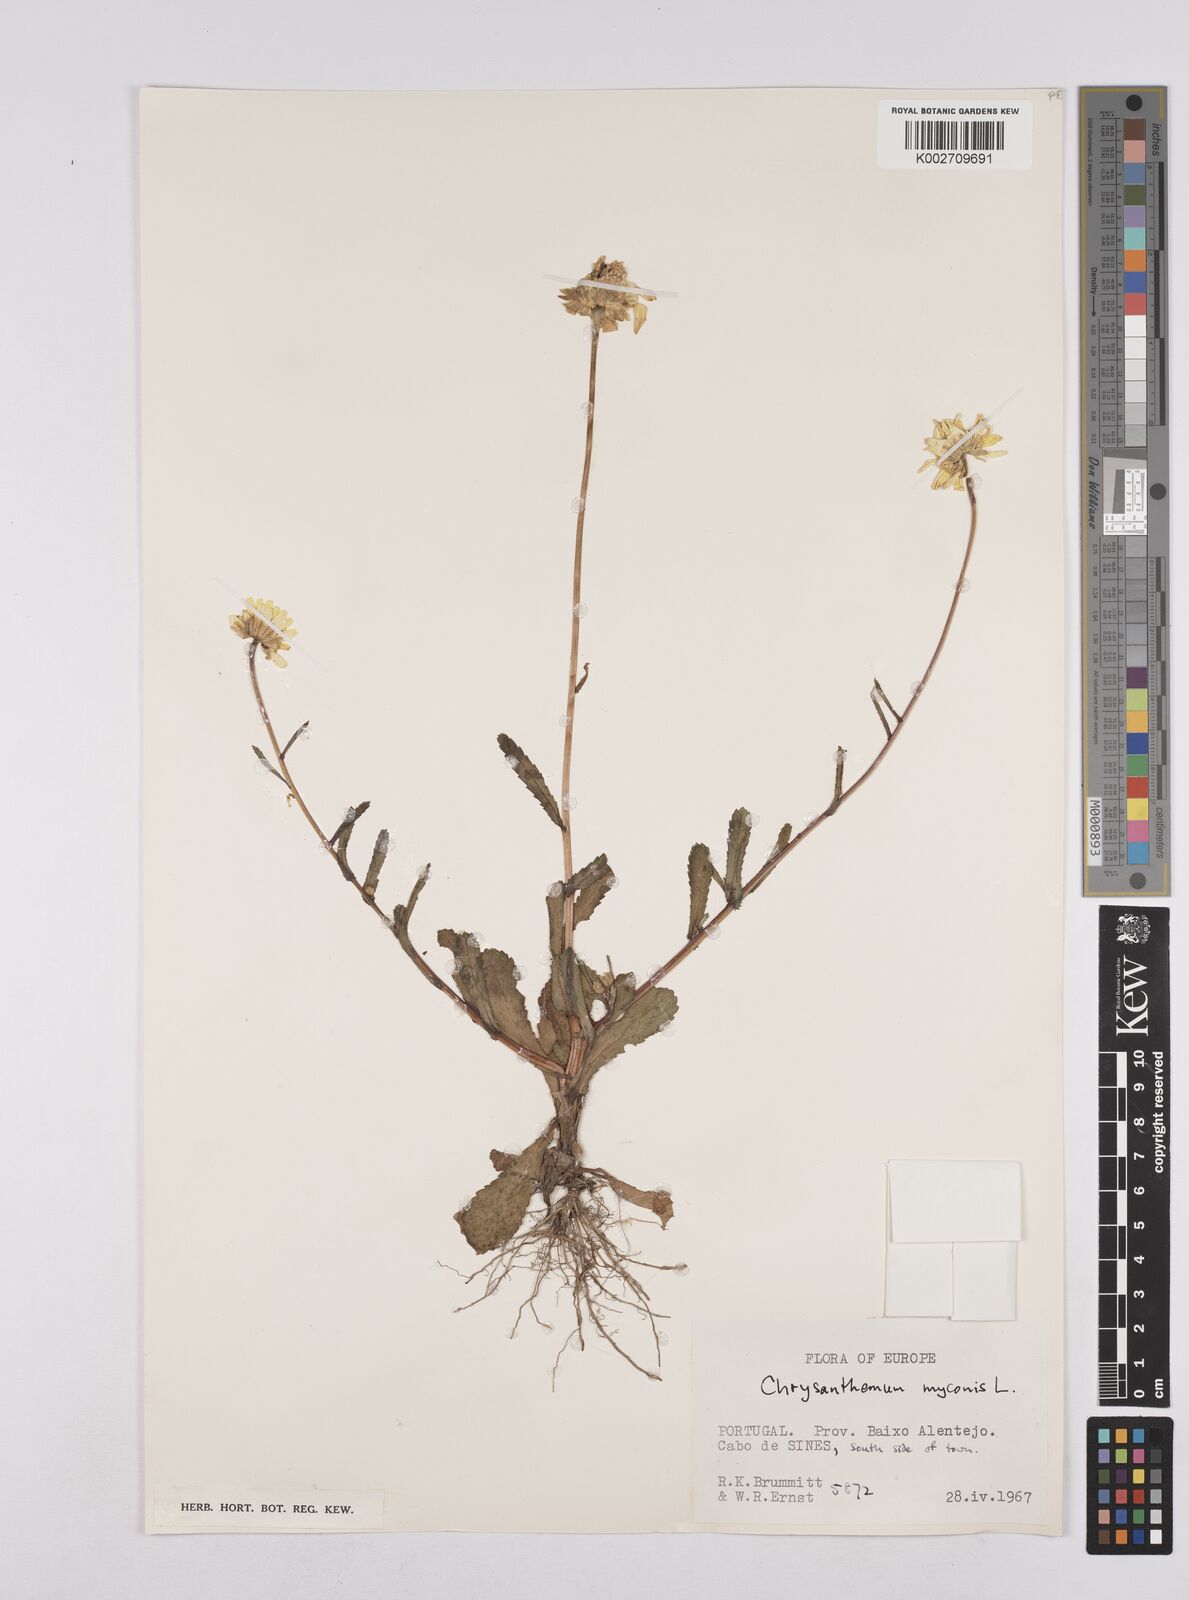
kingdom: Plantae
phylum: Tracheophyta
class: Magnoliopsida
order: Asterales
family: Asteraceae
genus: Coleostephus
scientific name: Coleostephus myconis
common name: Mediterranean marigold
